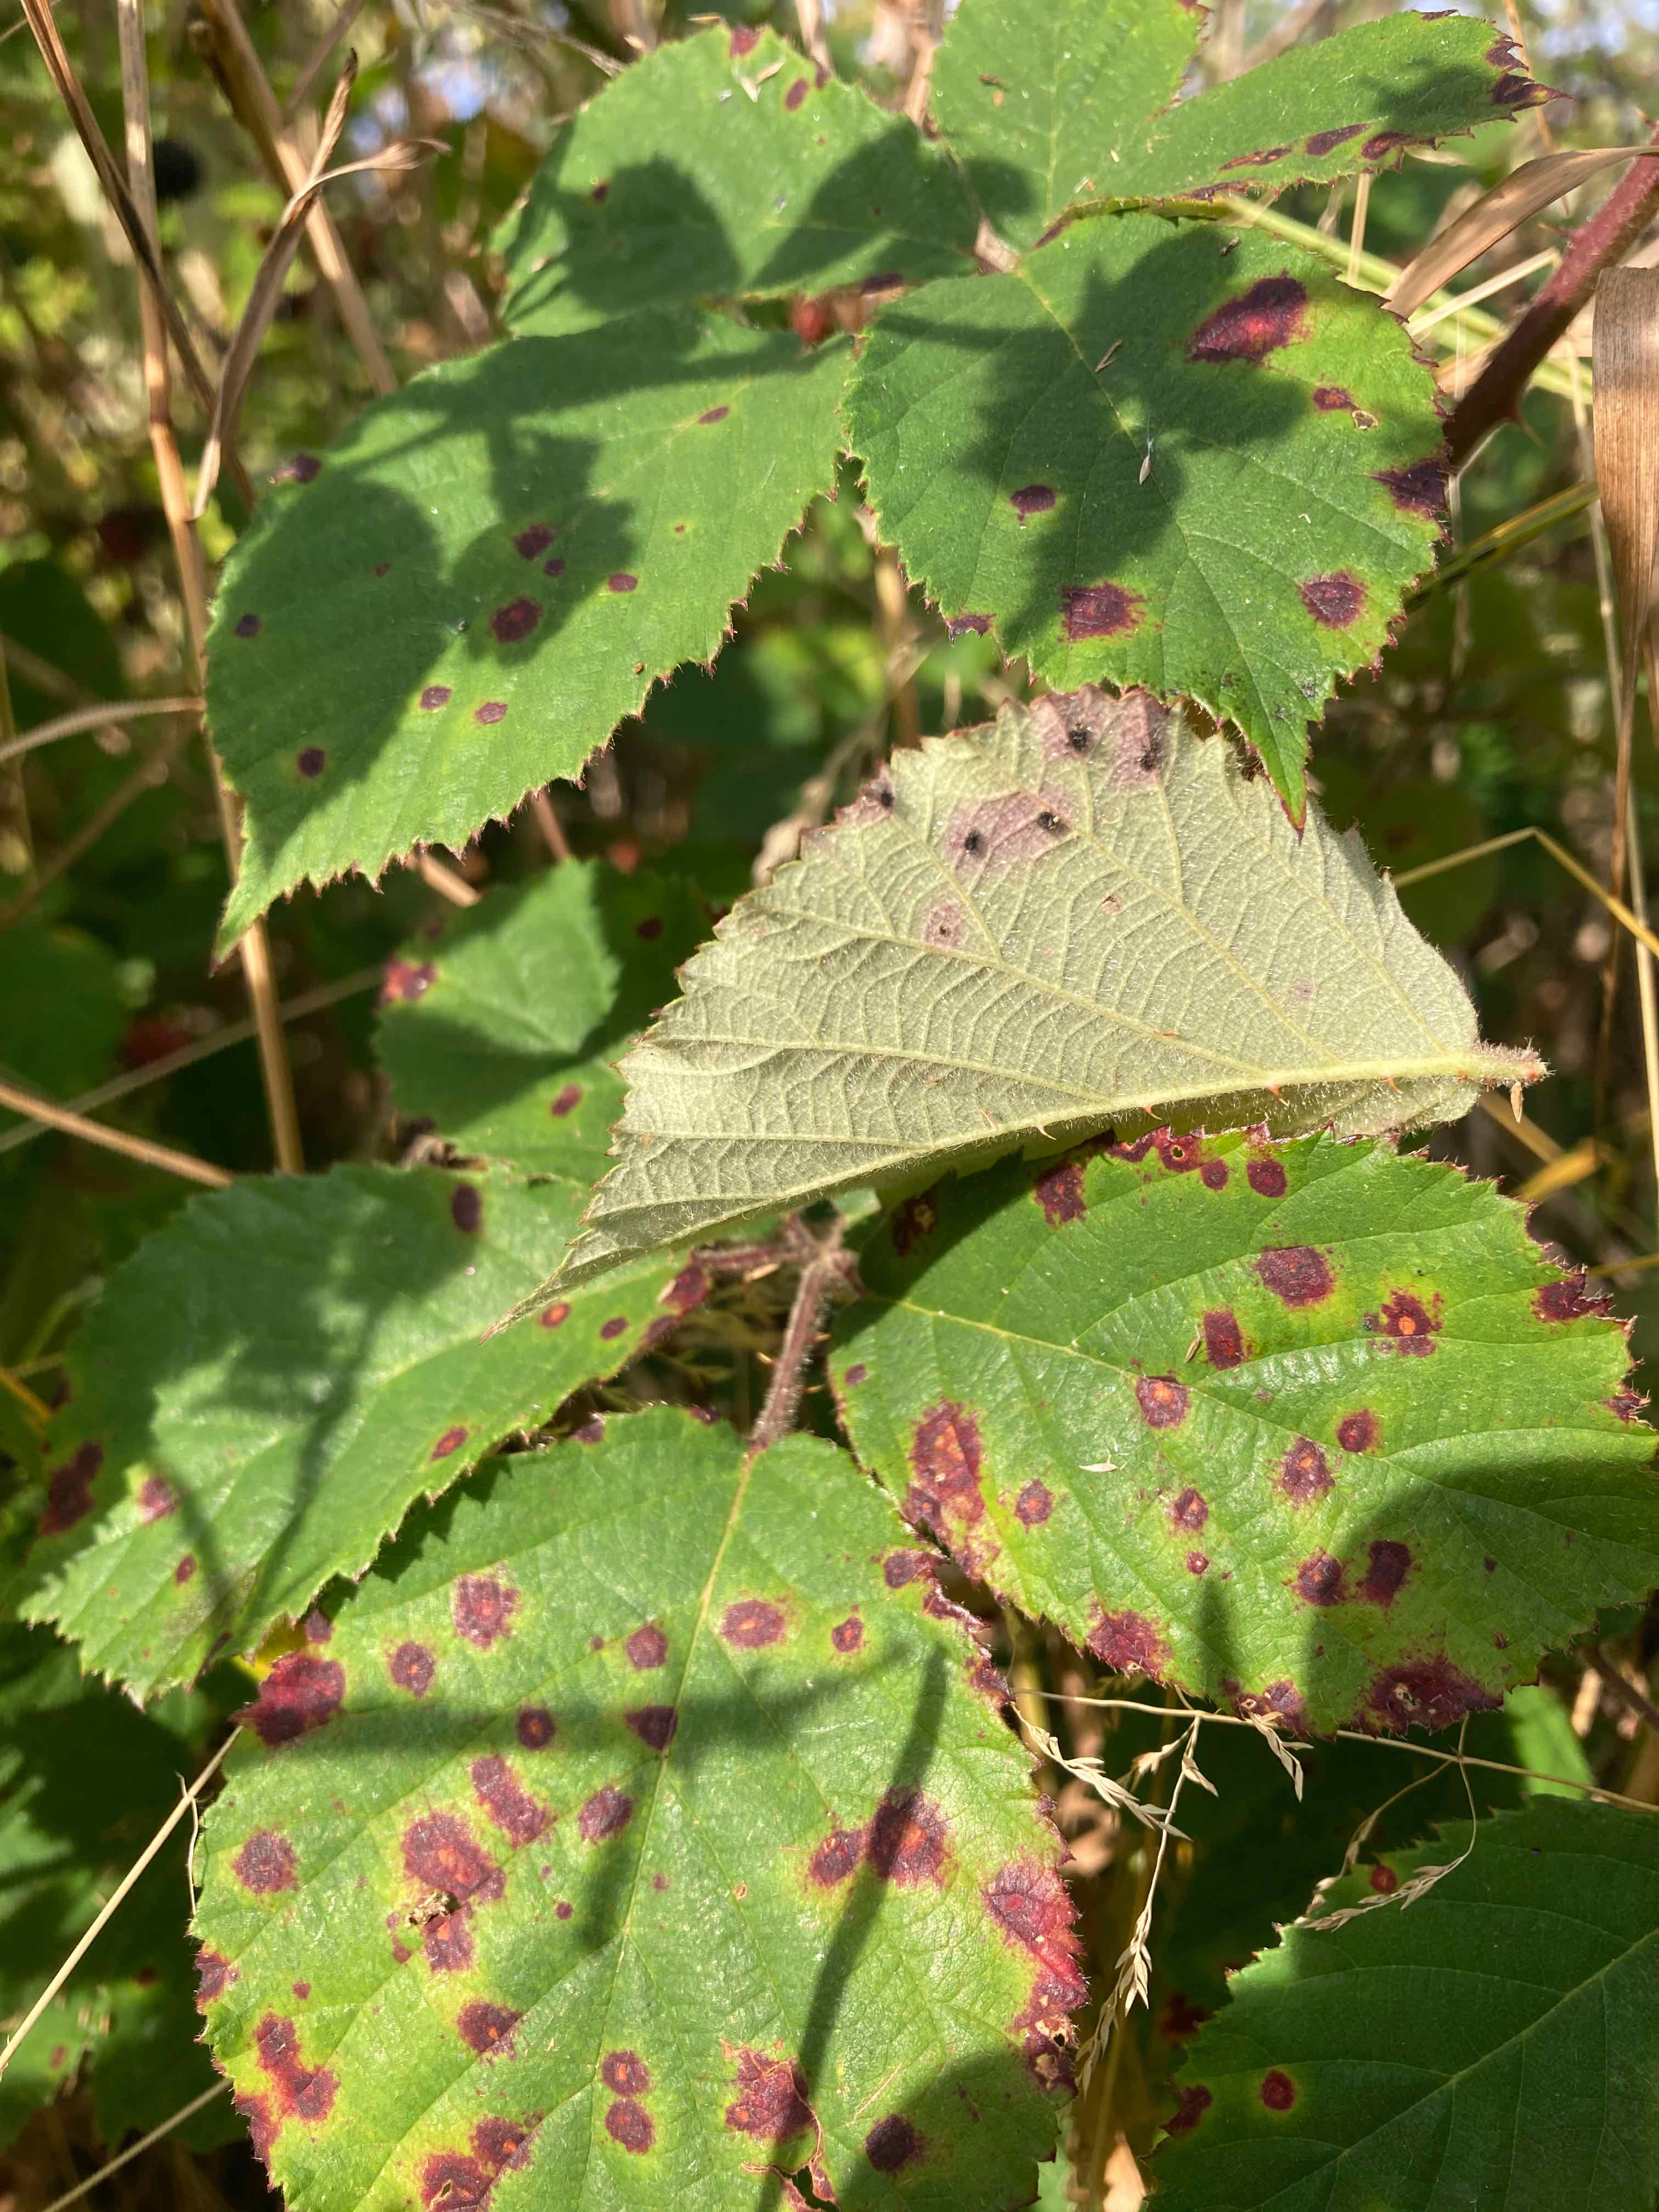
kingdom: Fungi
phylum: Basidiomycota
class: Pucciniomycetes
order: Pucciniales
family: Phragmidiaceae
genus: Phragmidium
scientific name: Phragmidium violaceum
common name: violet flercellerust
